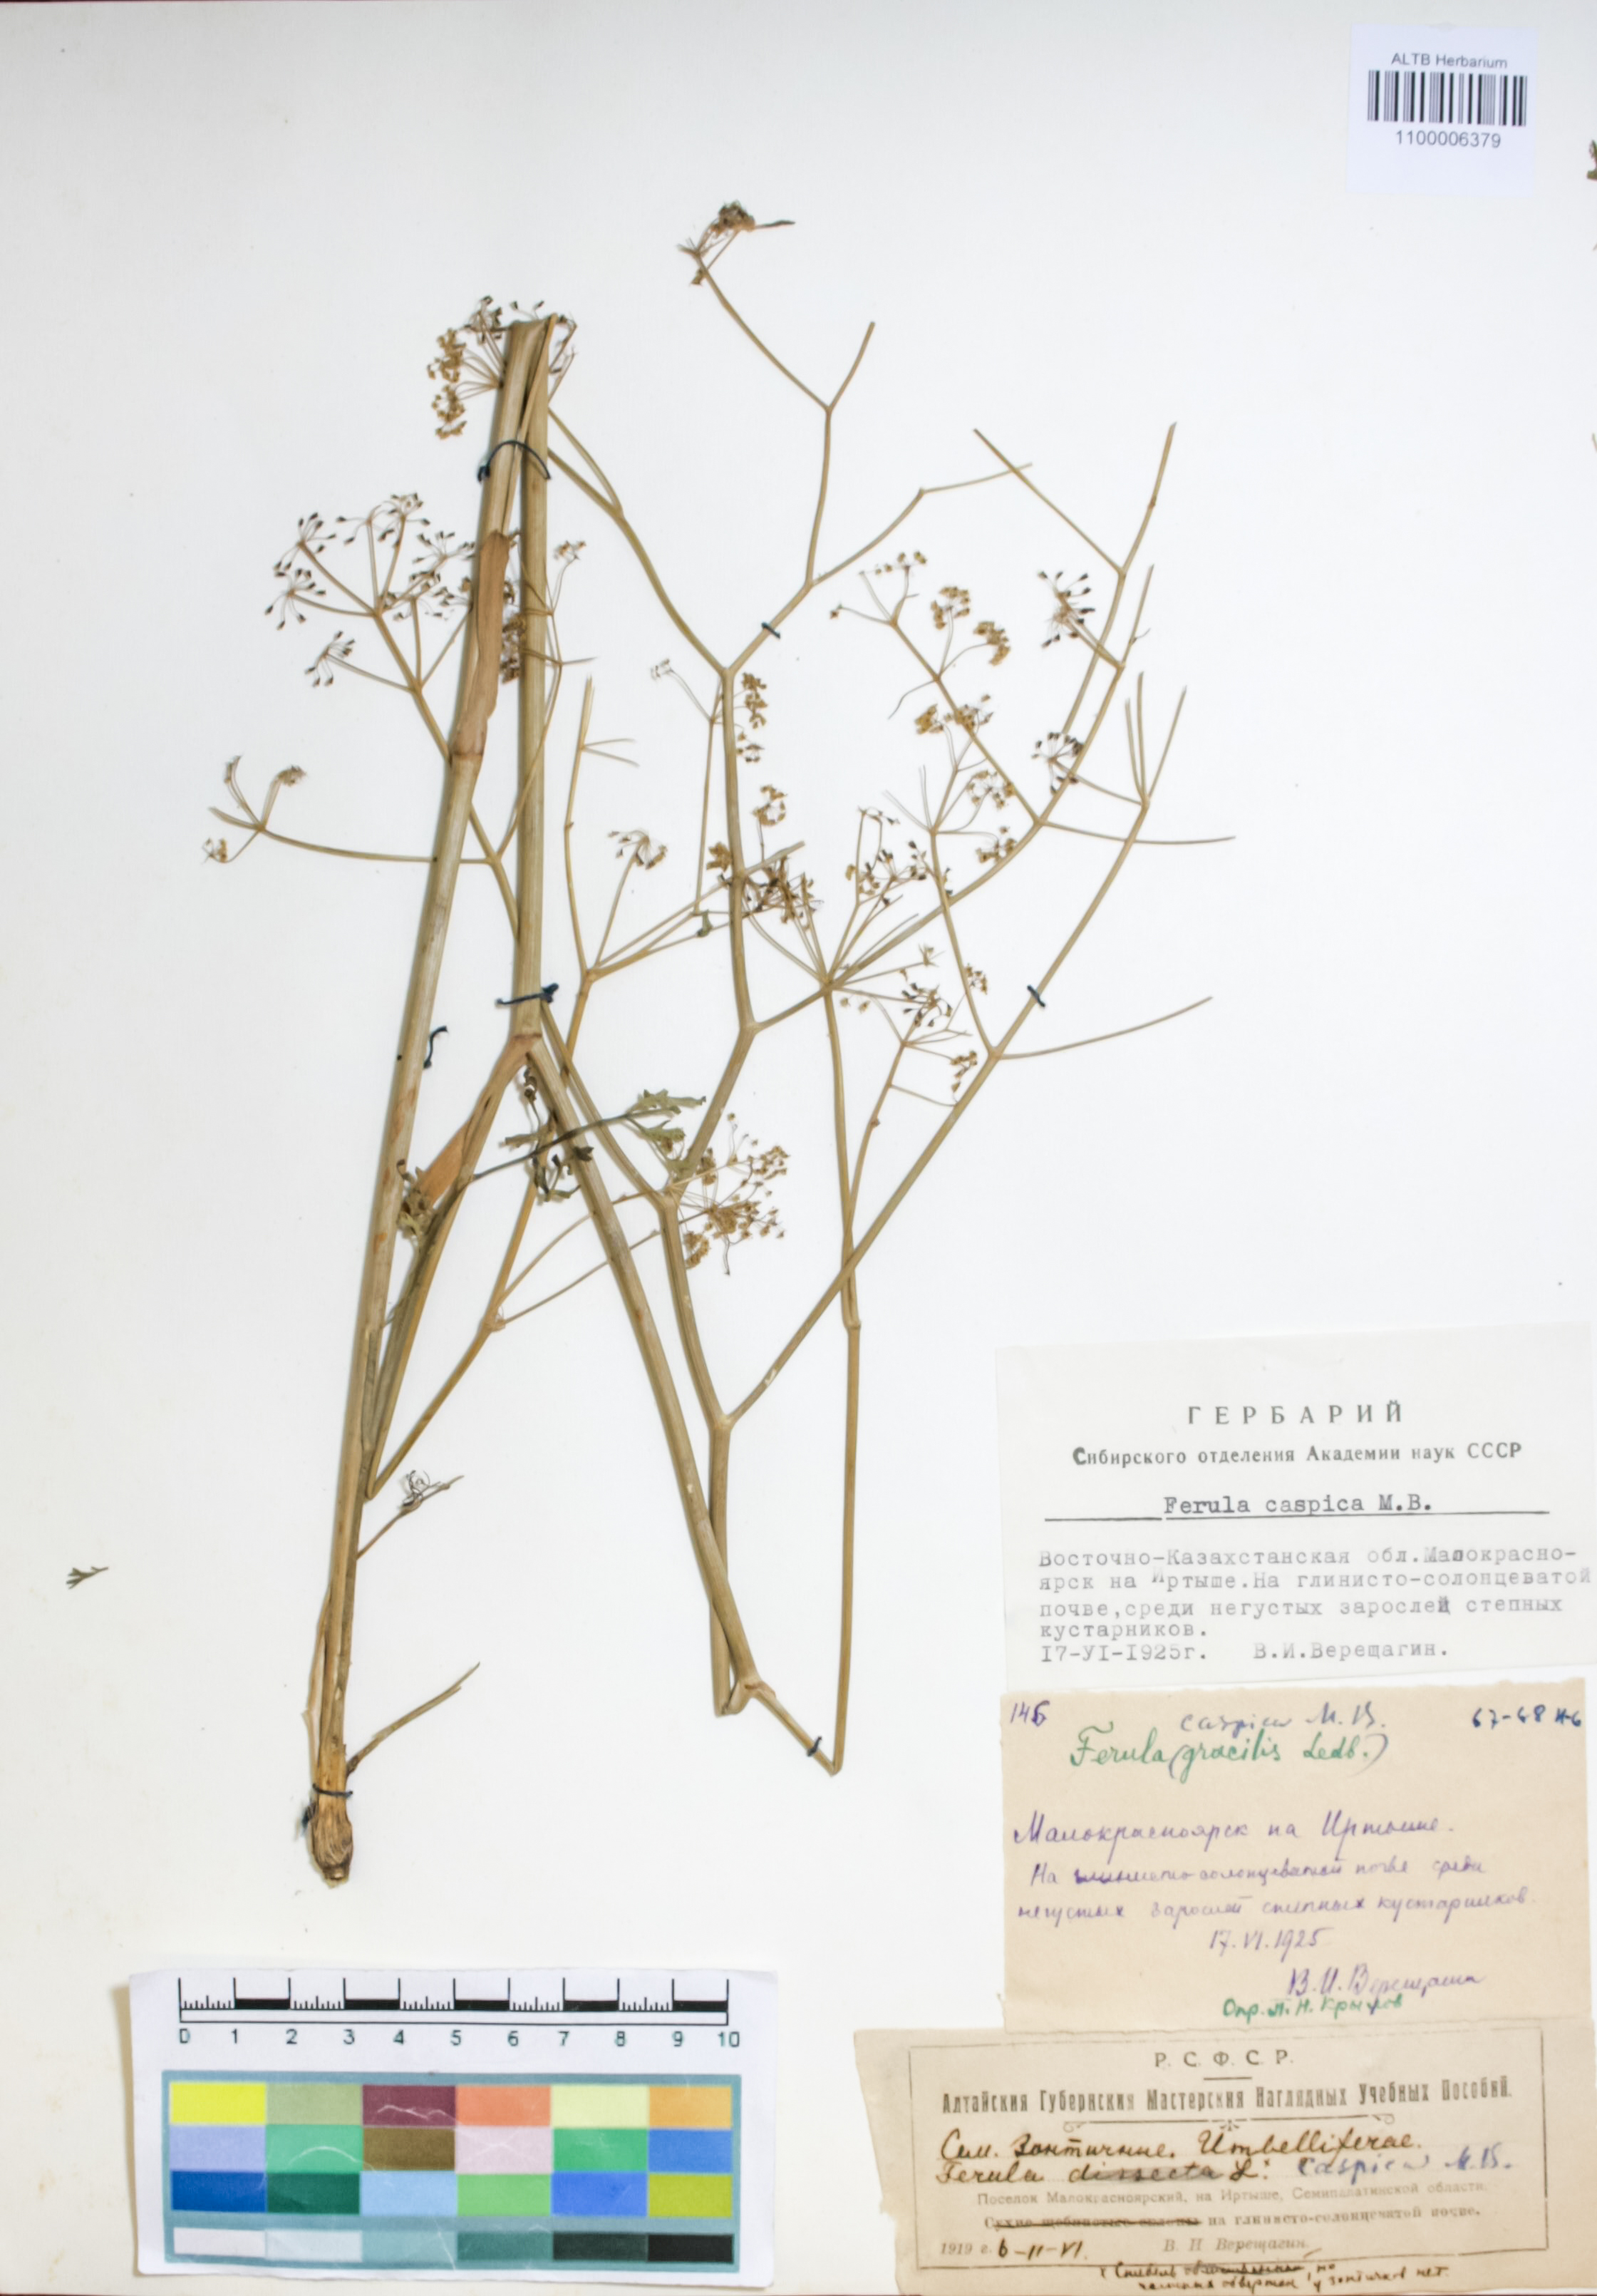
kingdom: Plantae
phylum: Tracheophyta
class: Magnoliopsida
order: Apiales
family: Apiaceae
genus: Ferula
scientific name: Ferula caspica
